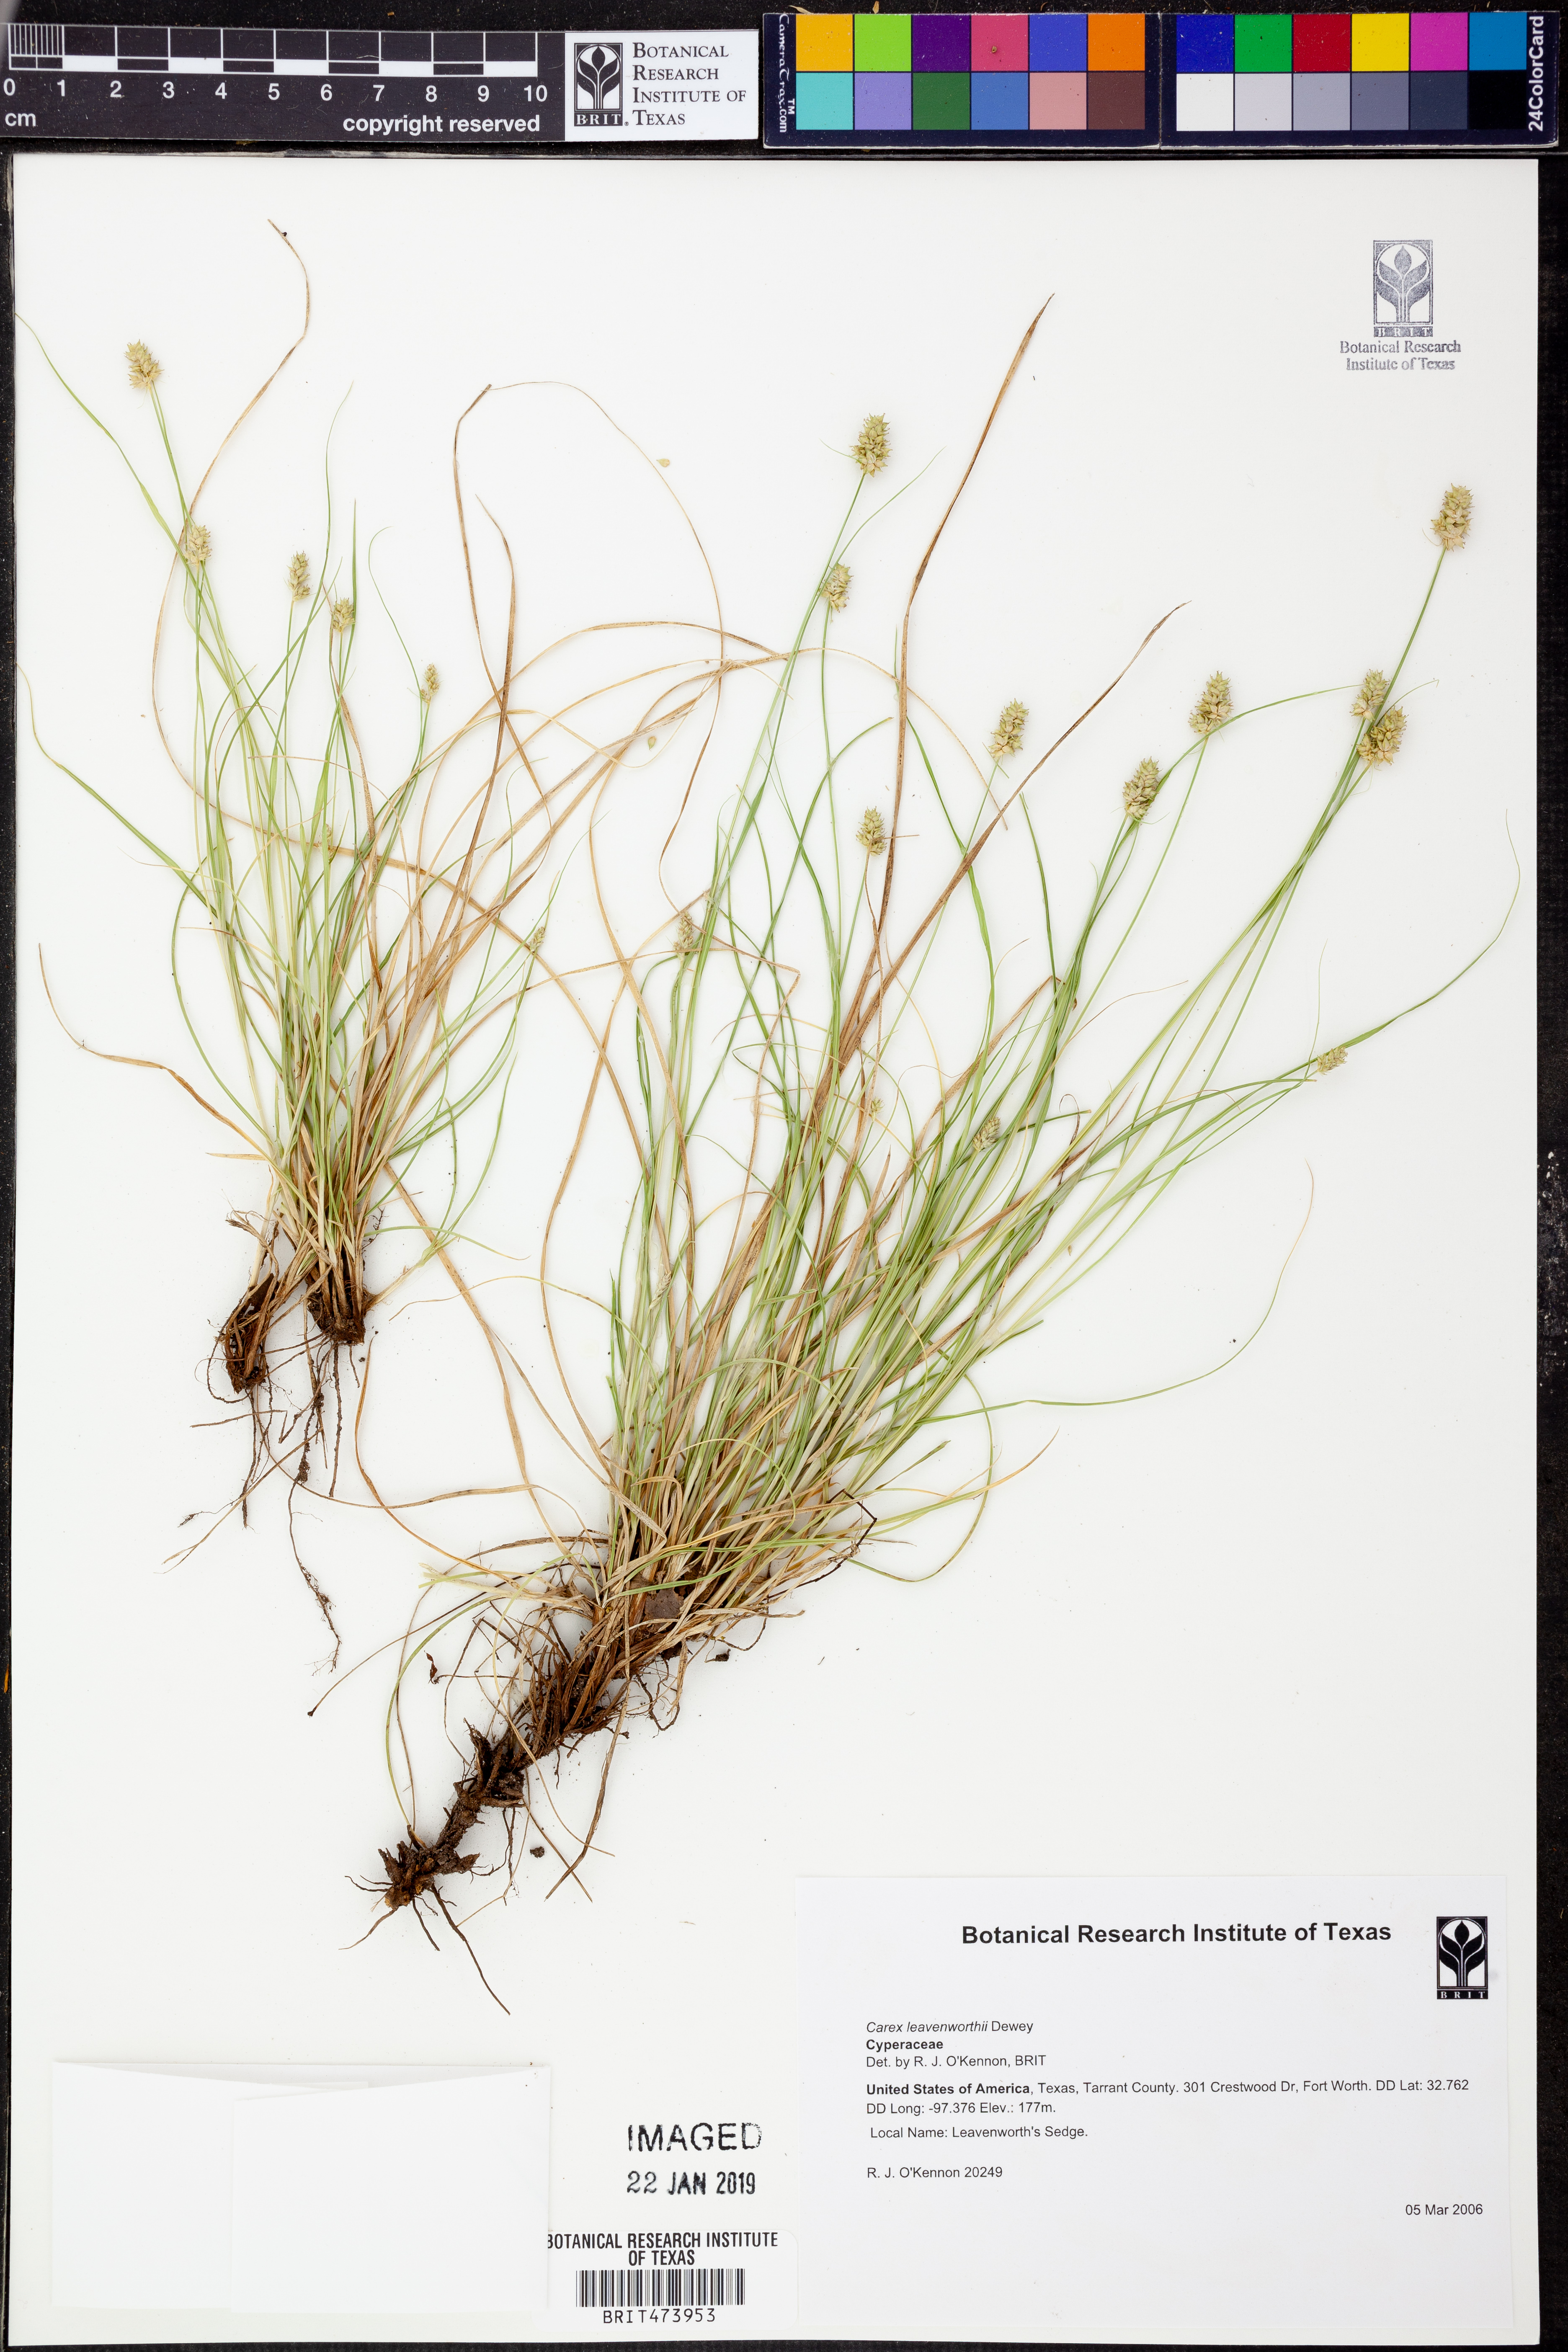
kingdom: Plantae
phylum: Tracheophyta
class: Liliopsida
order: Poales
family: Cyperaceae
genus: Carex
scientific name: Carex leavenworthii
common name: Leavenworth's bracted sedge
